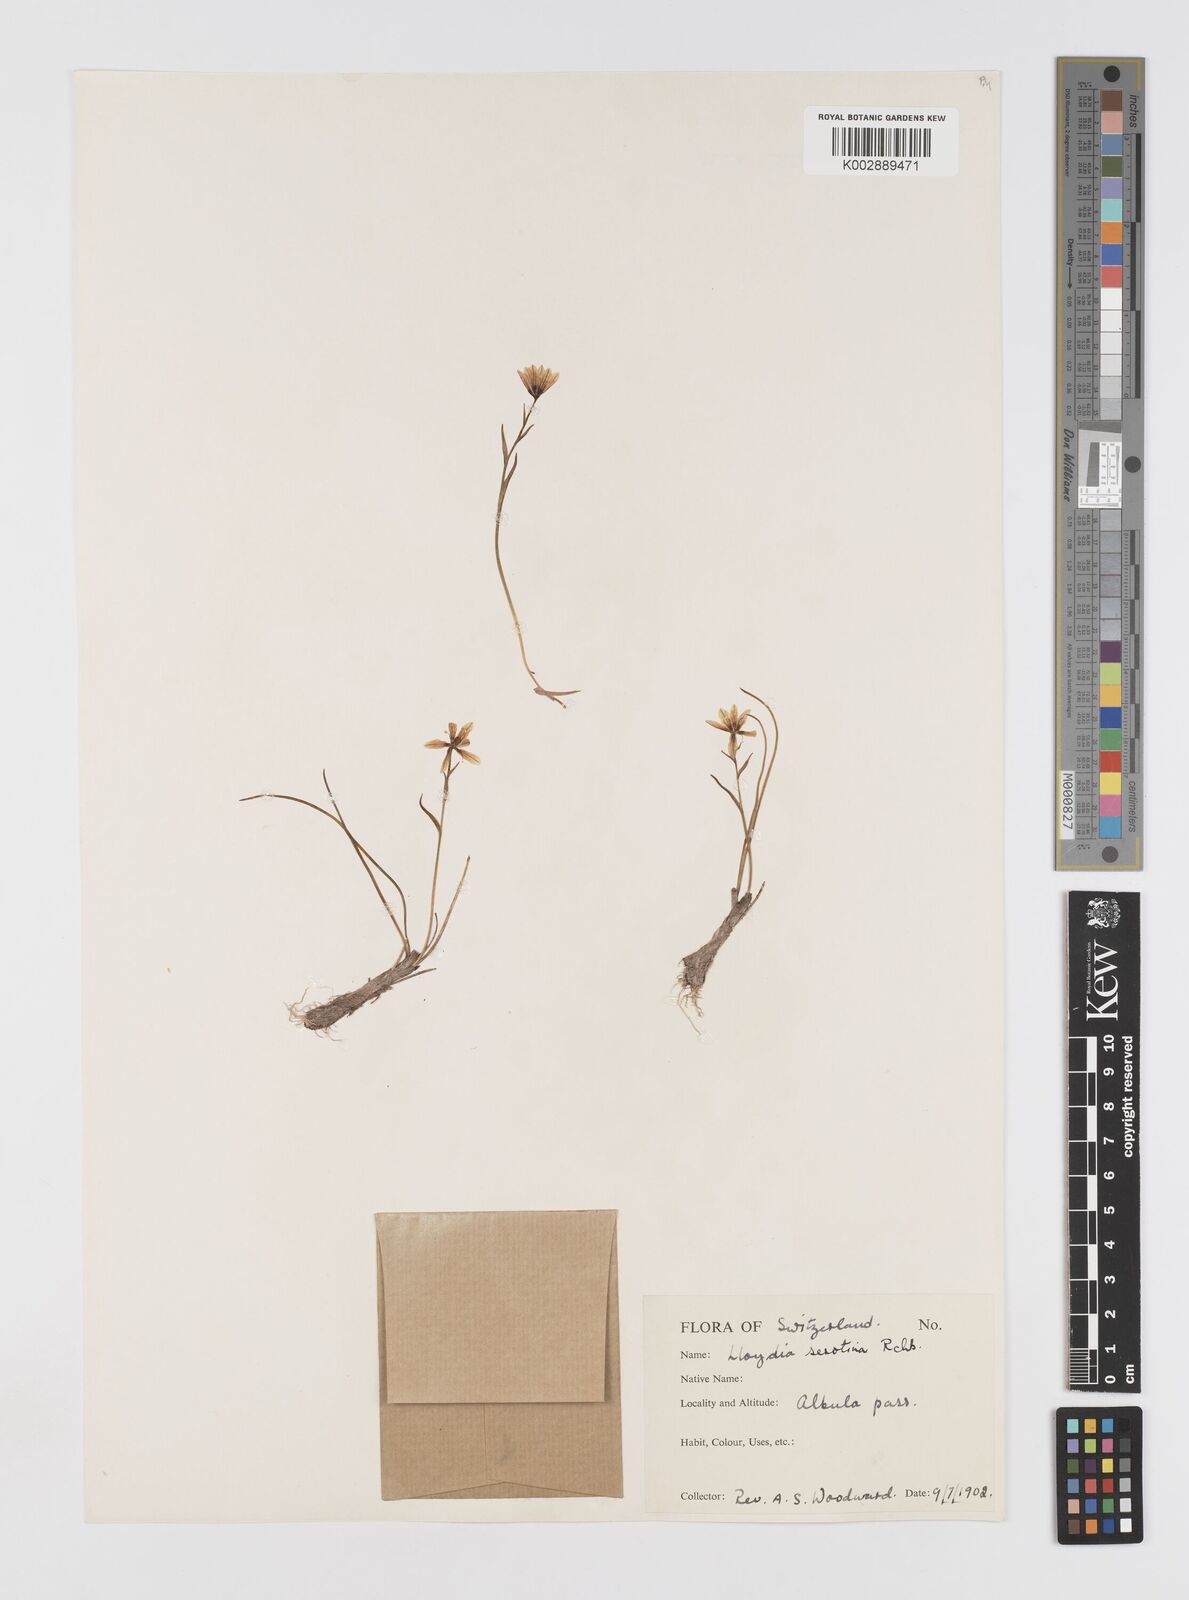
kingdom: Plantae
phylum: Tracheophyta
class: Liliopsida
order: Liliales
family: Liliaceae
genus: Gagea
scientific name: Gagea
